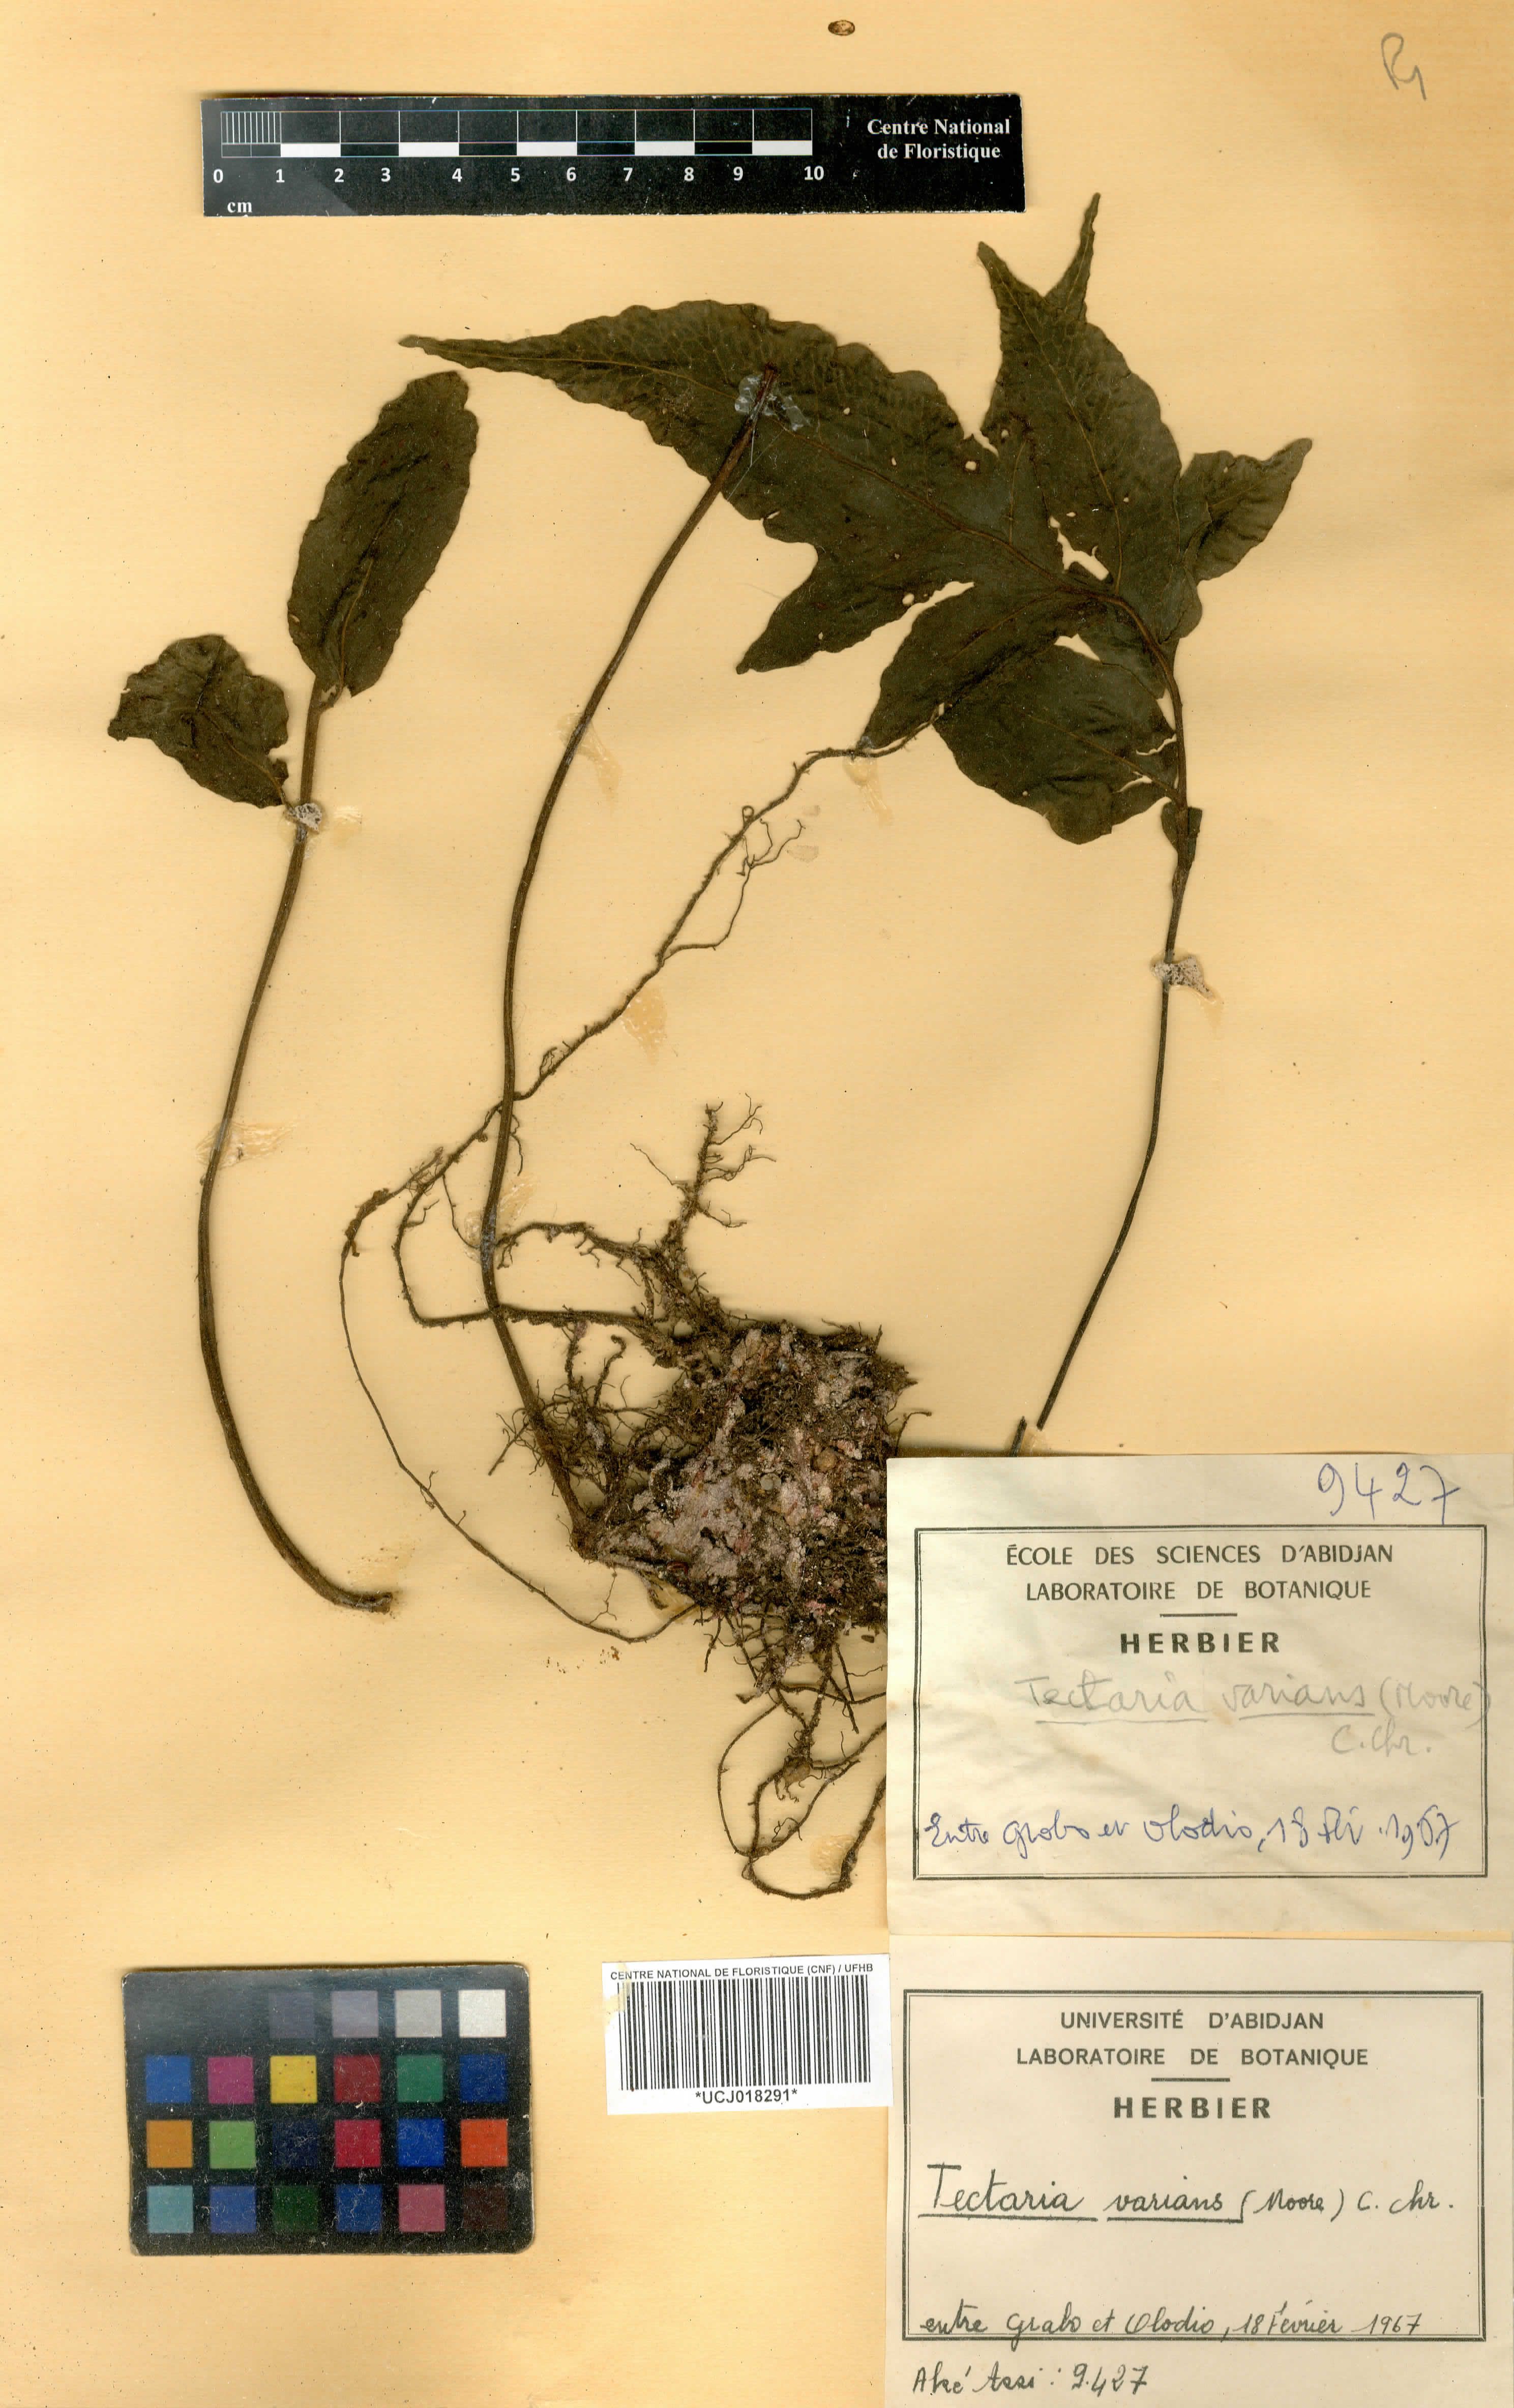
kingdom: Plantae
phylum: Tracheophyta
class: Polypodiopsida
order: Polypodiales
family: Tectariaceae
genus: Triplophyllum
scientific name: Triplophyllum varians
